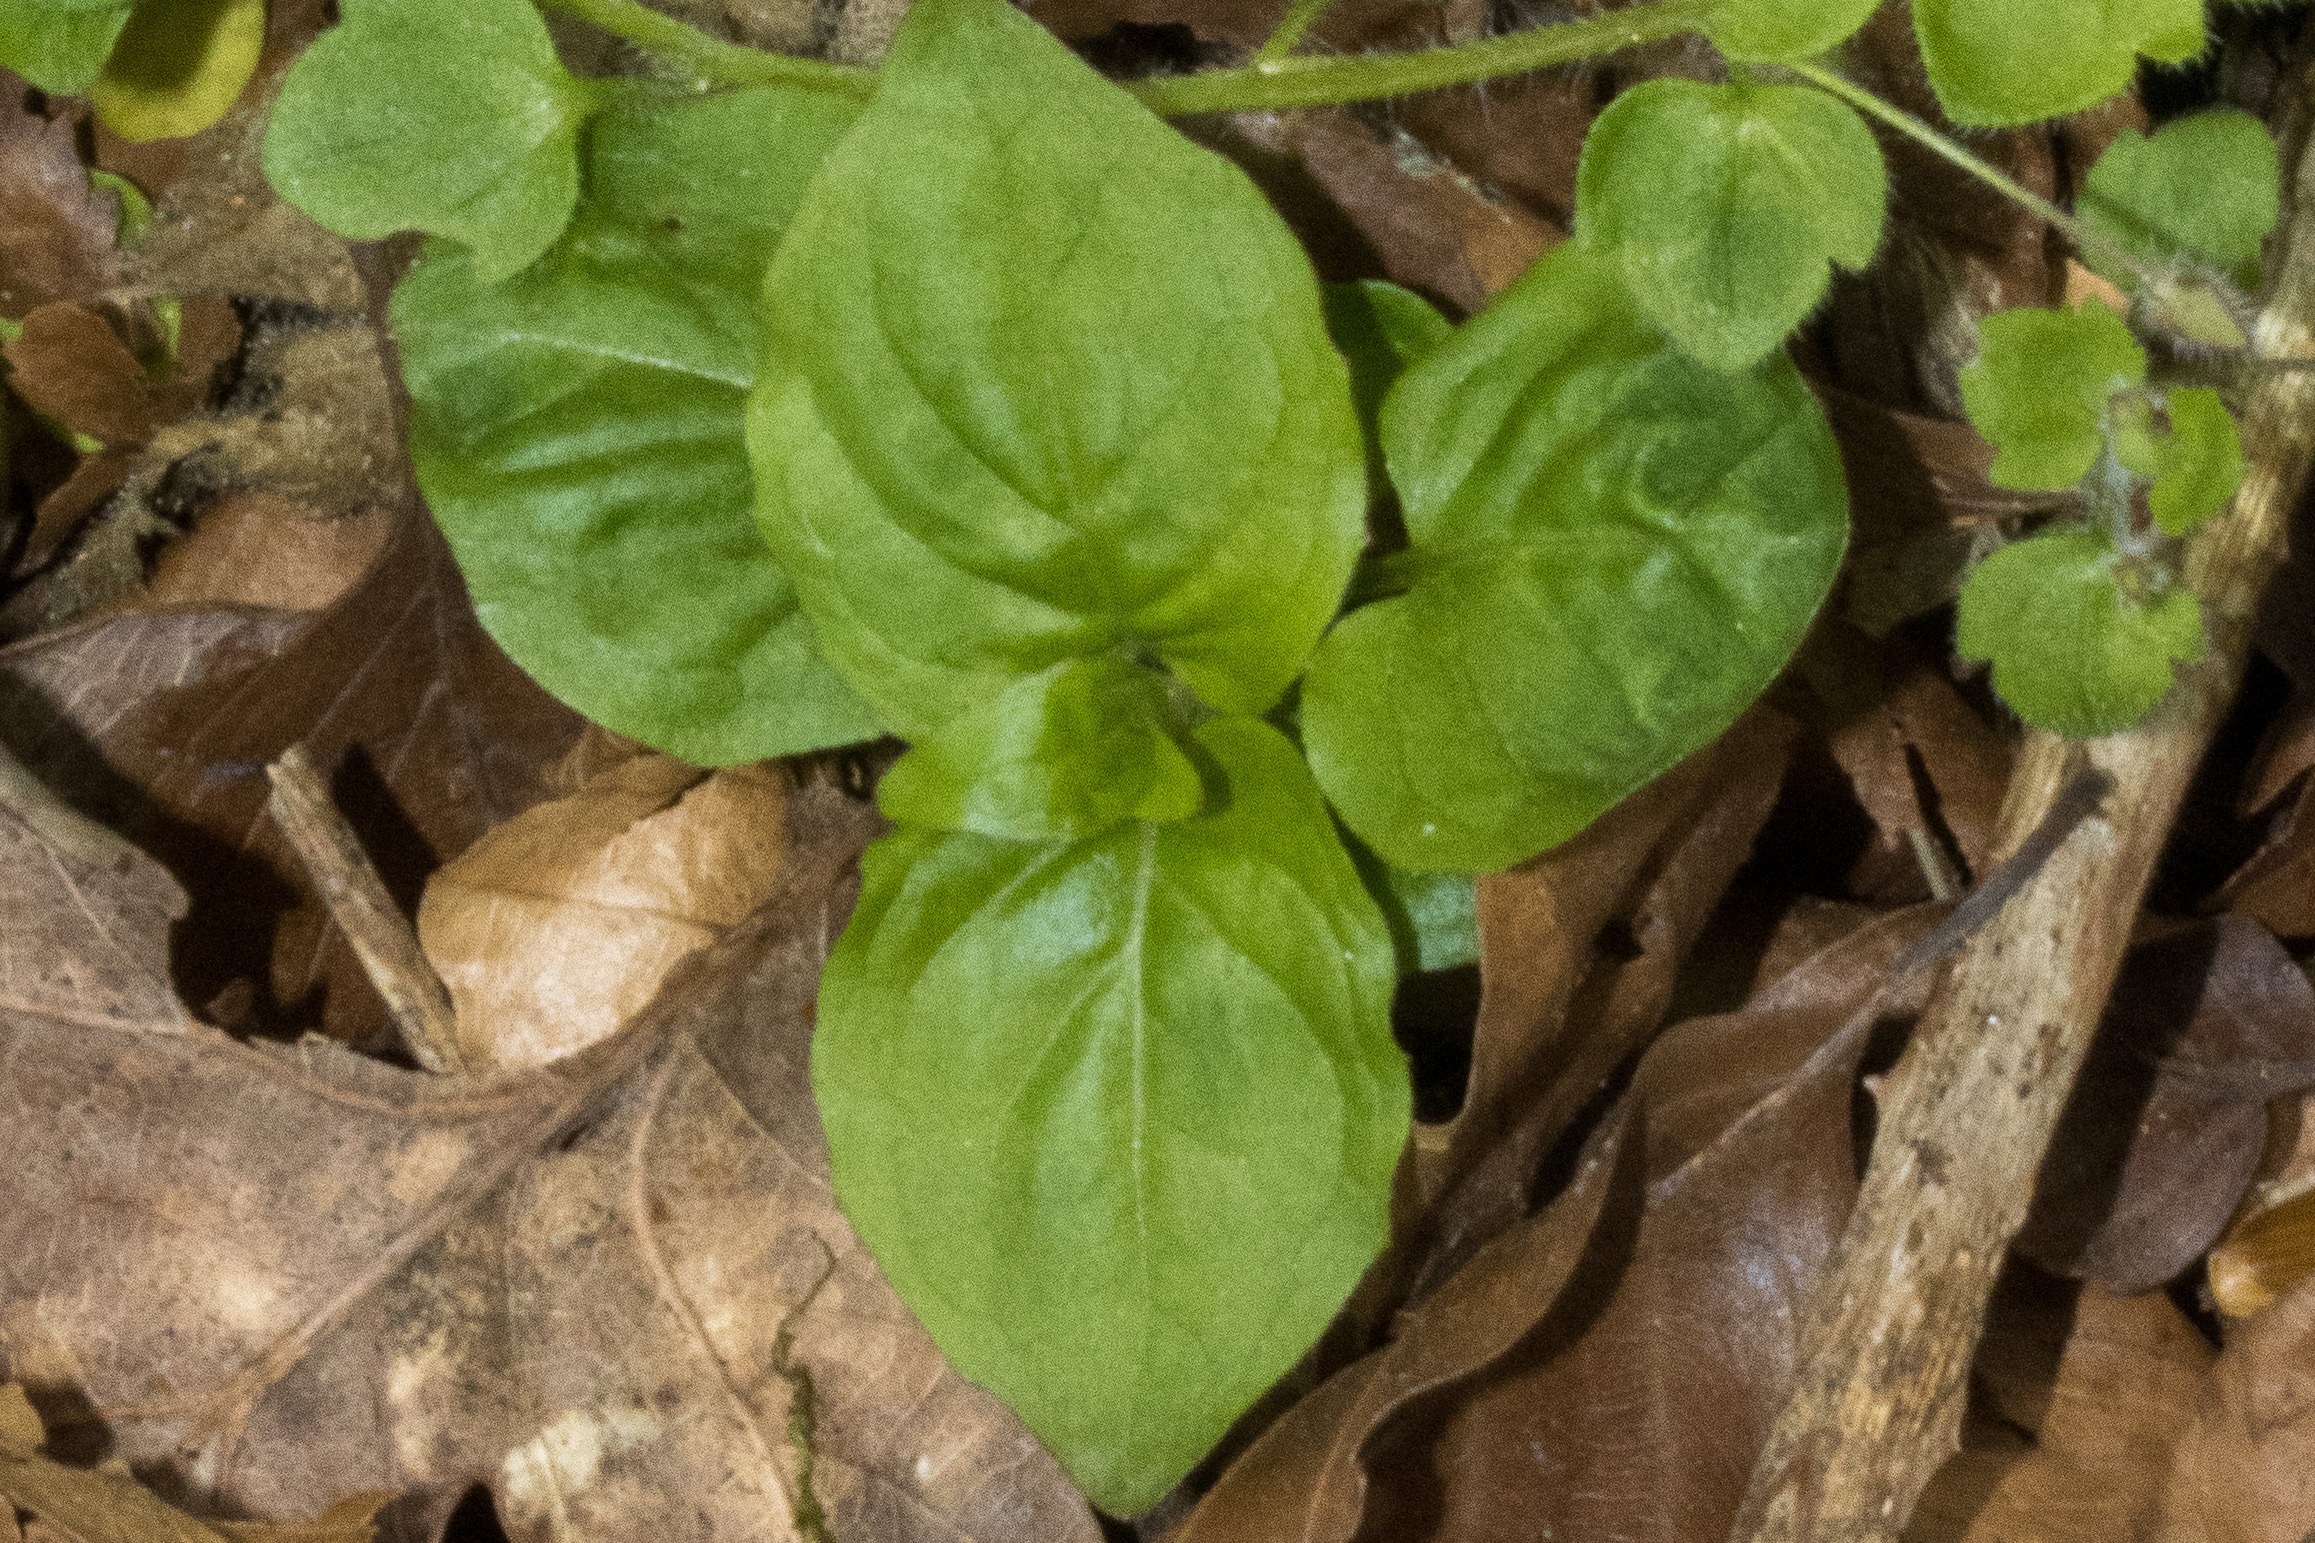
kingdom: Plantae
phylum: Tracheophyta
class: Magnoliopsida
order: Myrtales
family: Onagraceae
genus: Circaea
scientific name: Circaea lutetiana
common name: Dunet steffensurt
